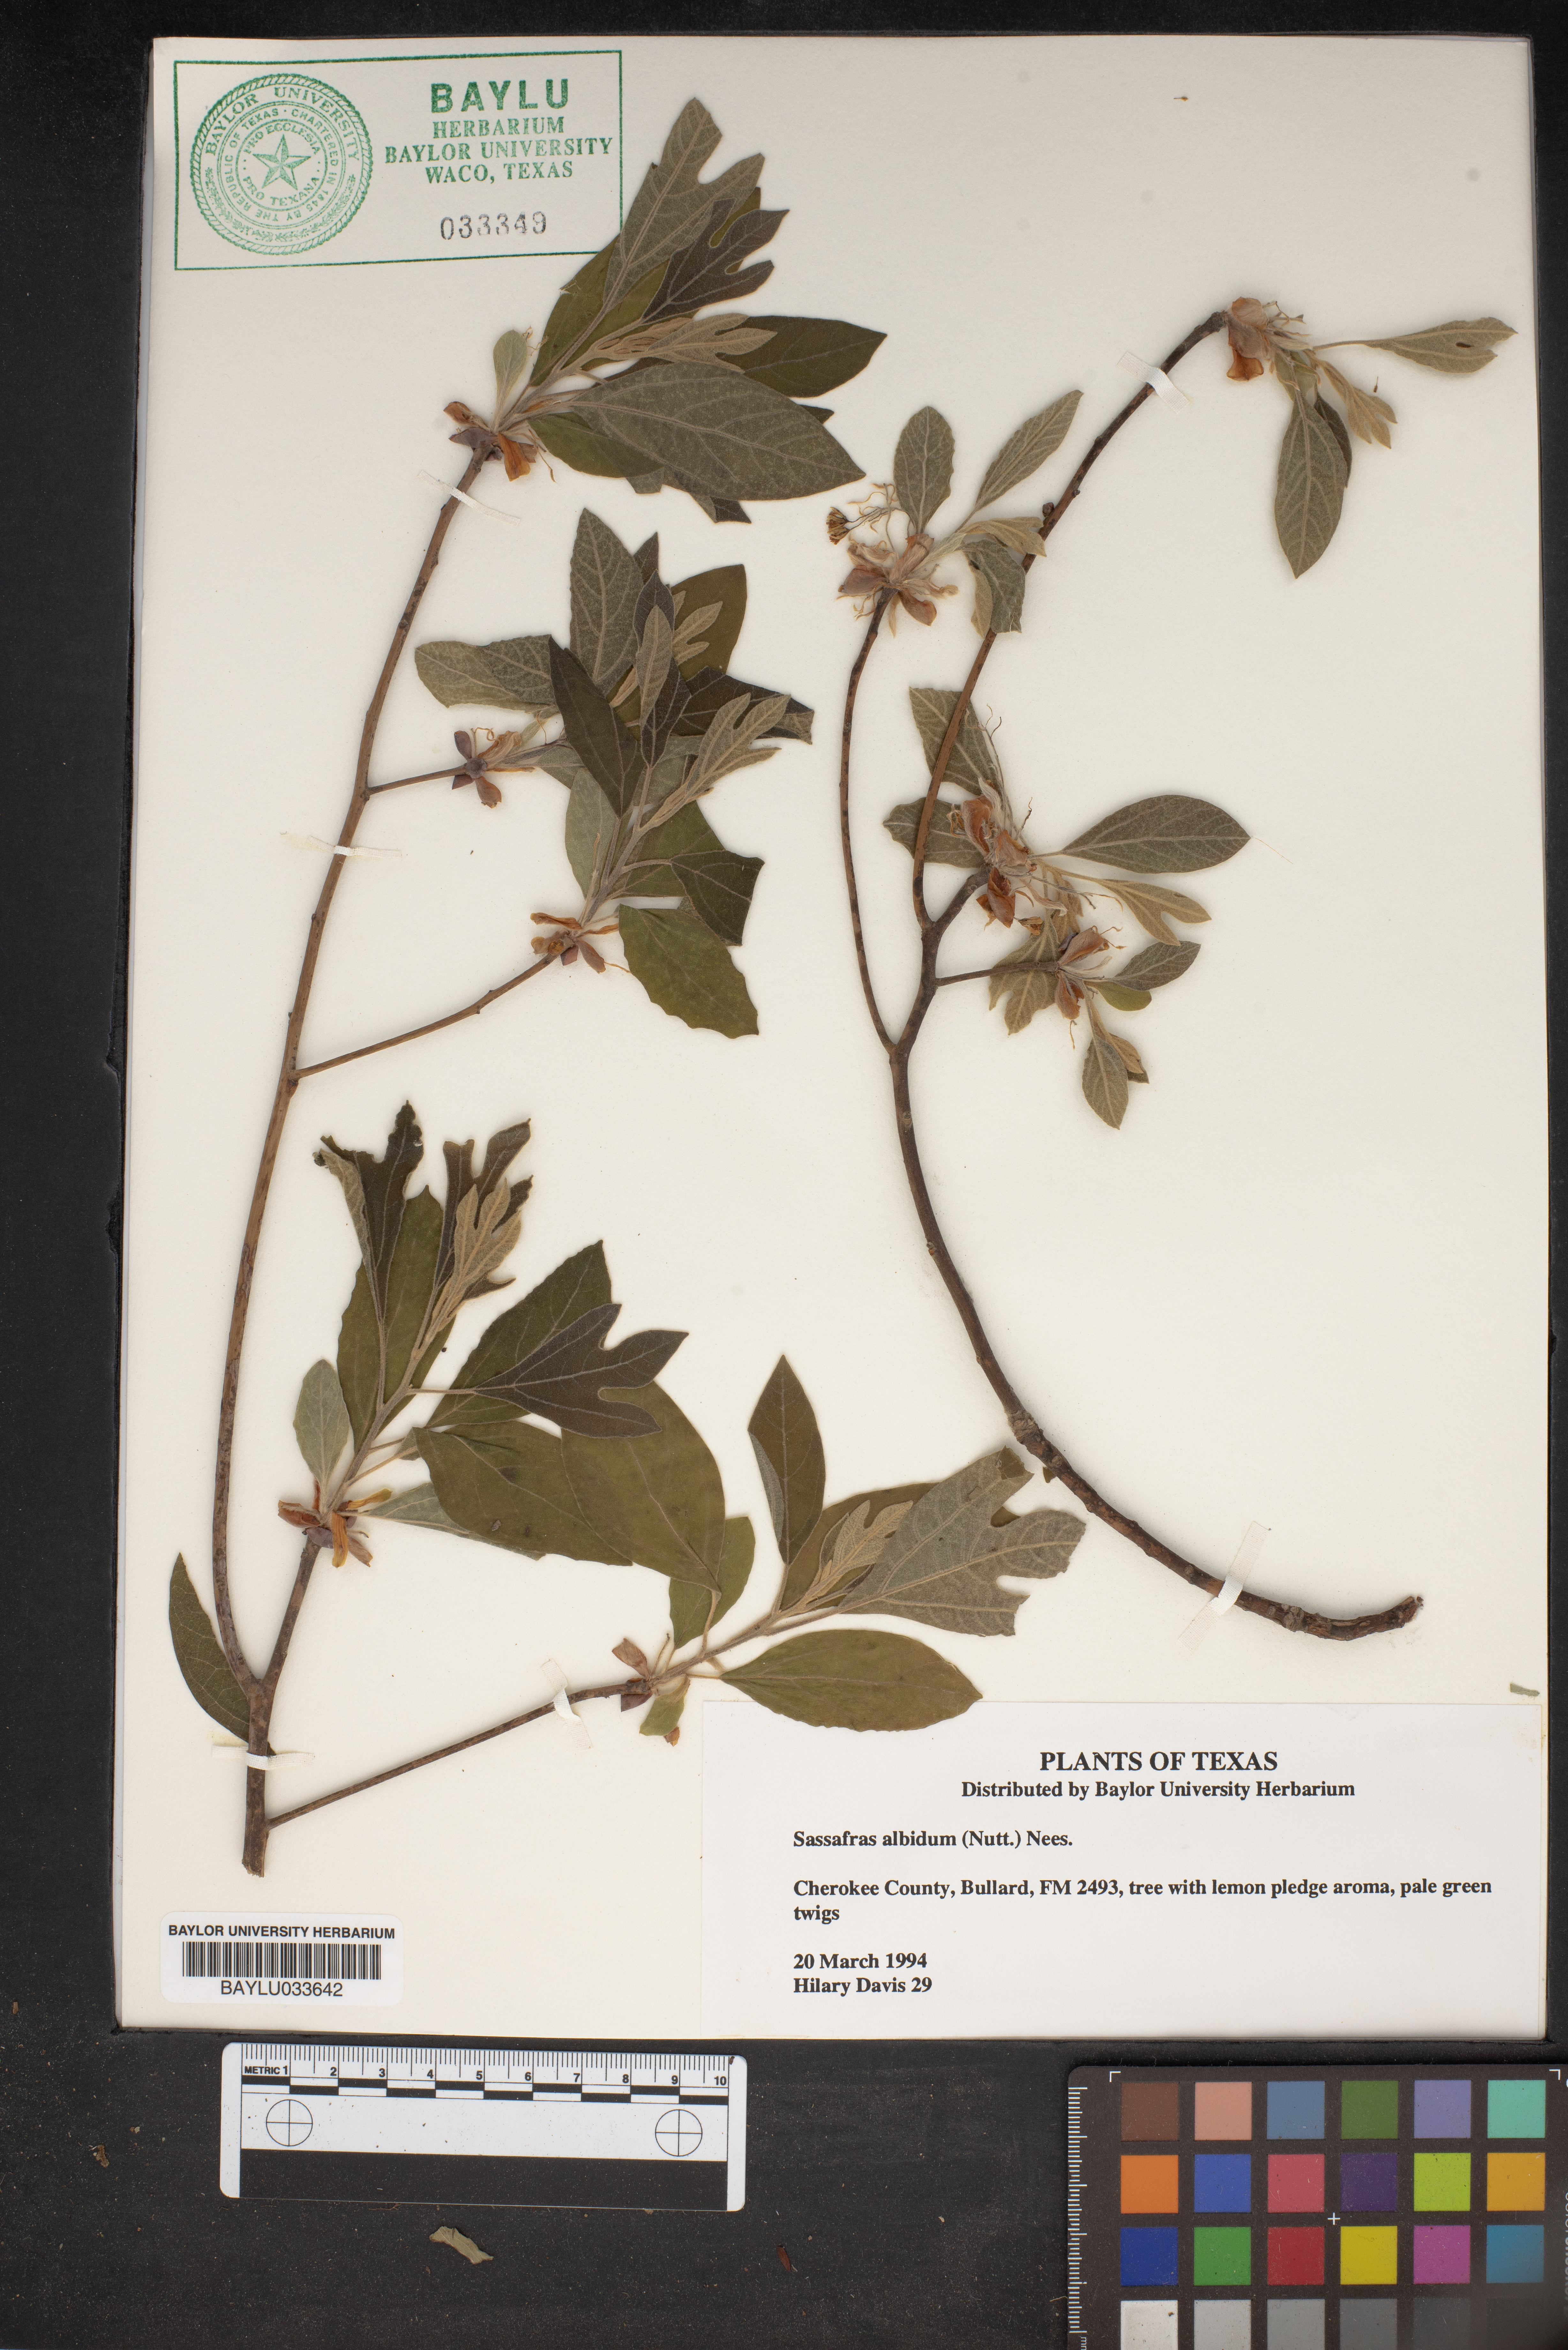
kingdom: Plantae
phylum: Tracheophyta
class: Magnoliopsida
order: Laurales
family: Lauraceae
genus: Sassafras
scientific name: Sassafras albidum
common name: Sassafras
